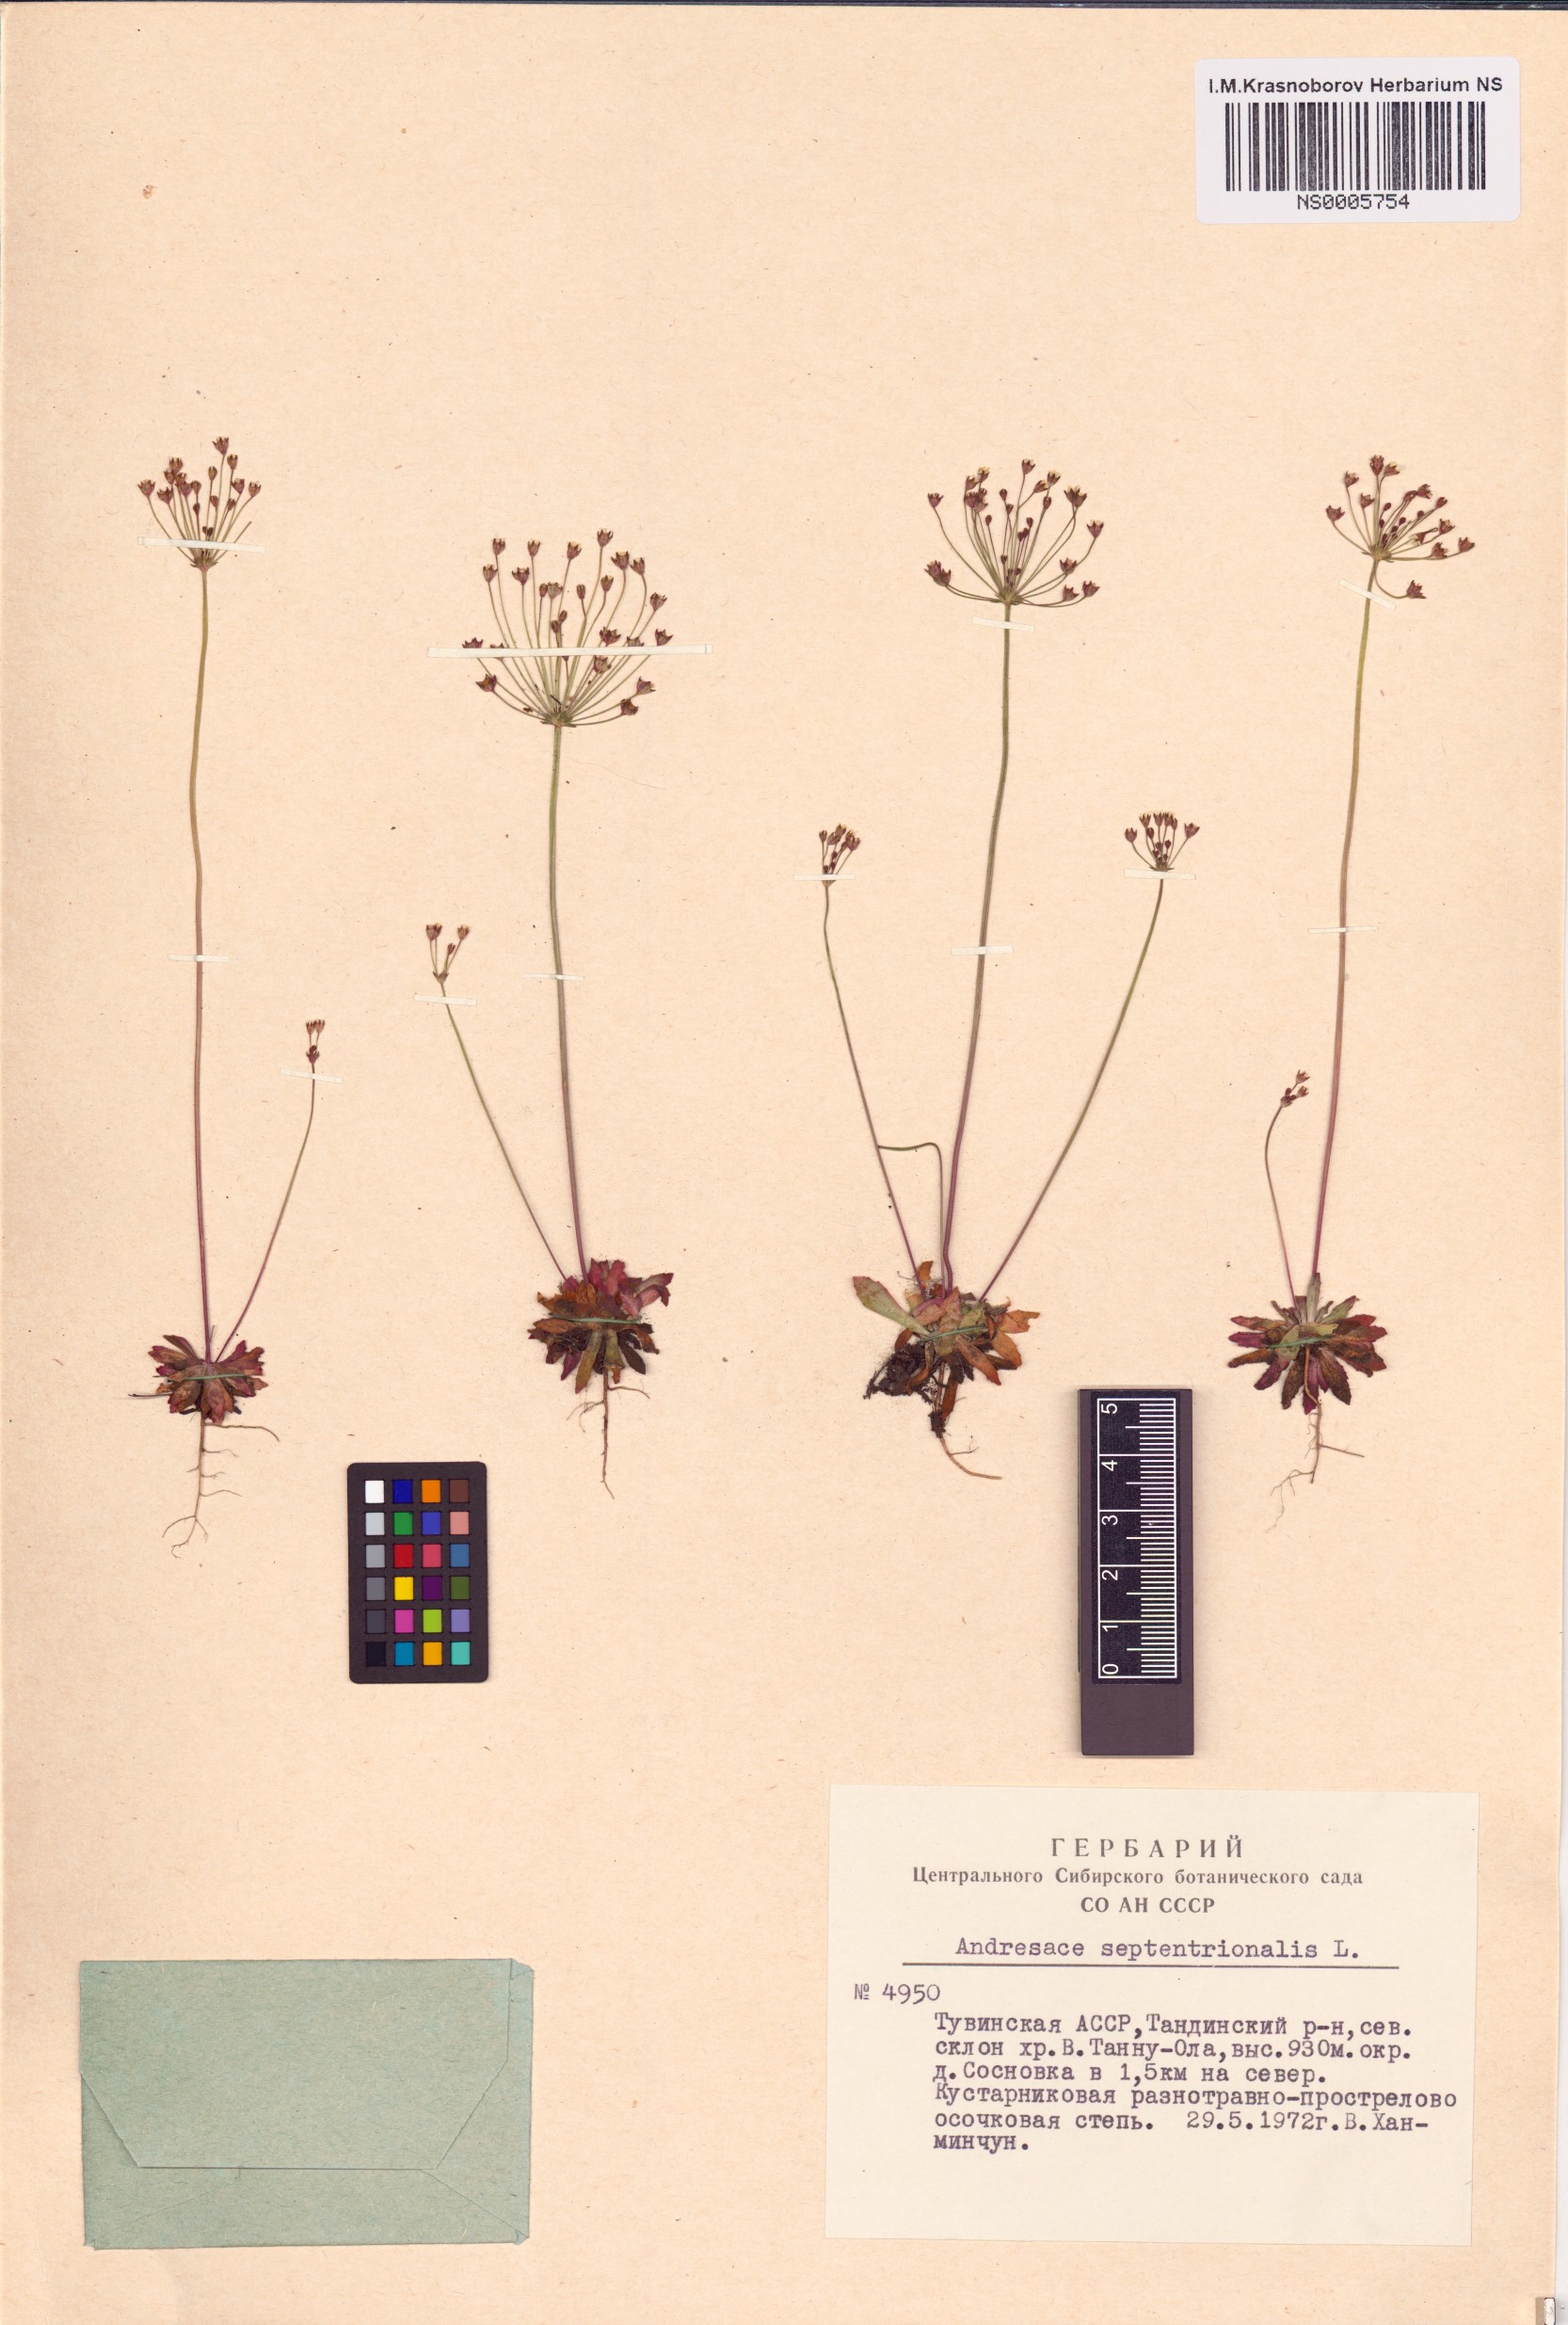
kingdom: Plantae
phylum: Tracheophyta
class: Magnoliopsida
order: Ericales
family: Primulaceae
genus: Androsace
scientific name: Androsace septentrionalis
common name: Hairy northern fairy-candelabra
